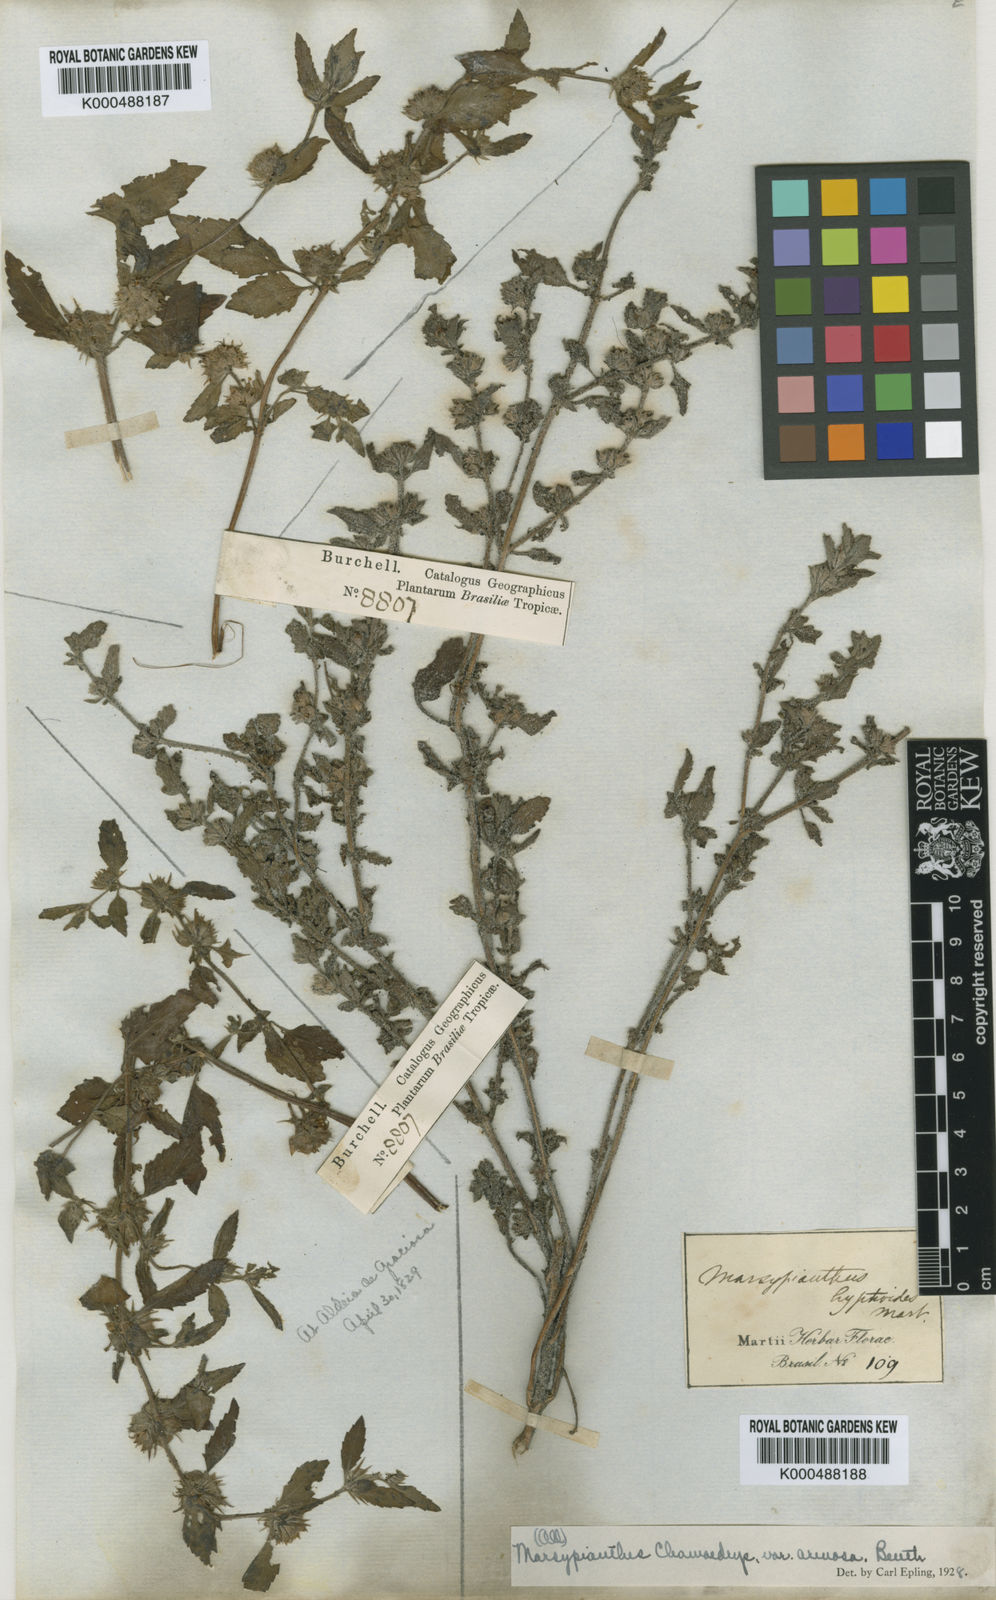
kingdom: Plantae
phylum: Tracheophyta
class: Magnoliopsida
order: Lamiales
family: Lamiaceae
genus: Marsypianthes
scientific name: Marsypianthes chamaedrys
